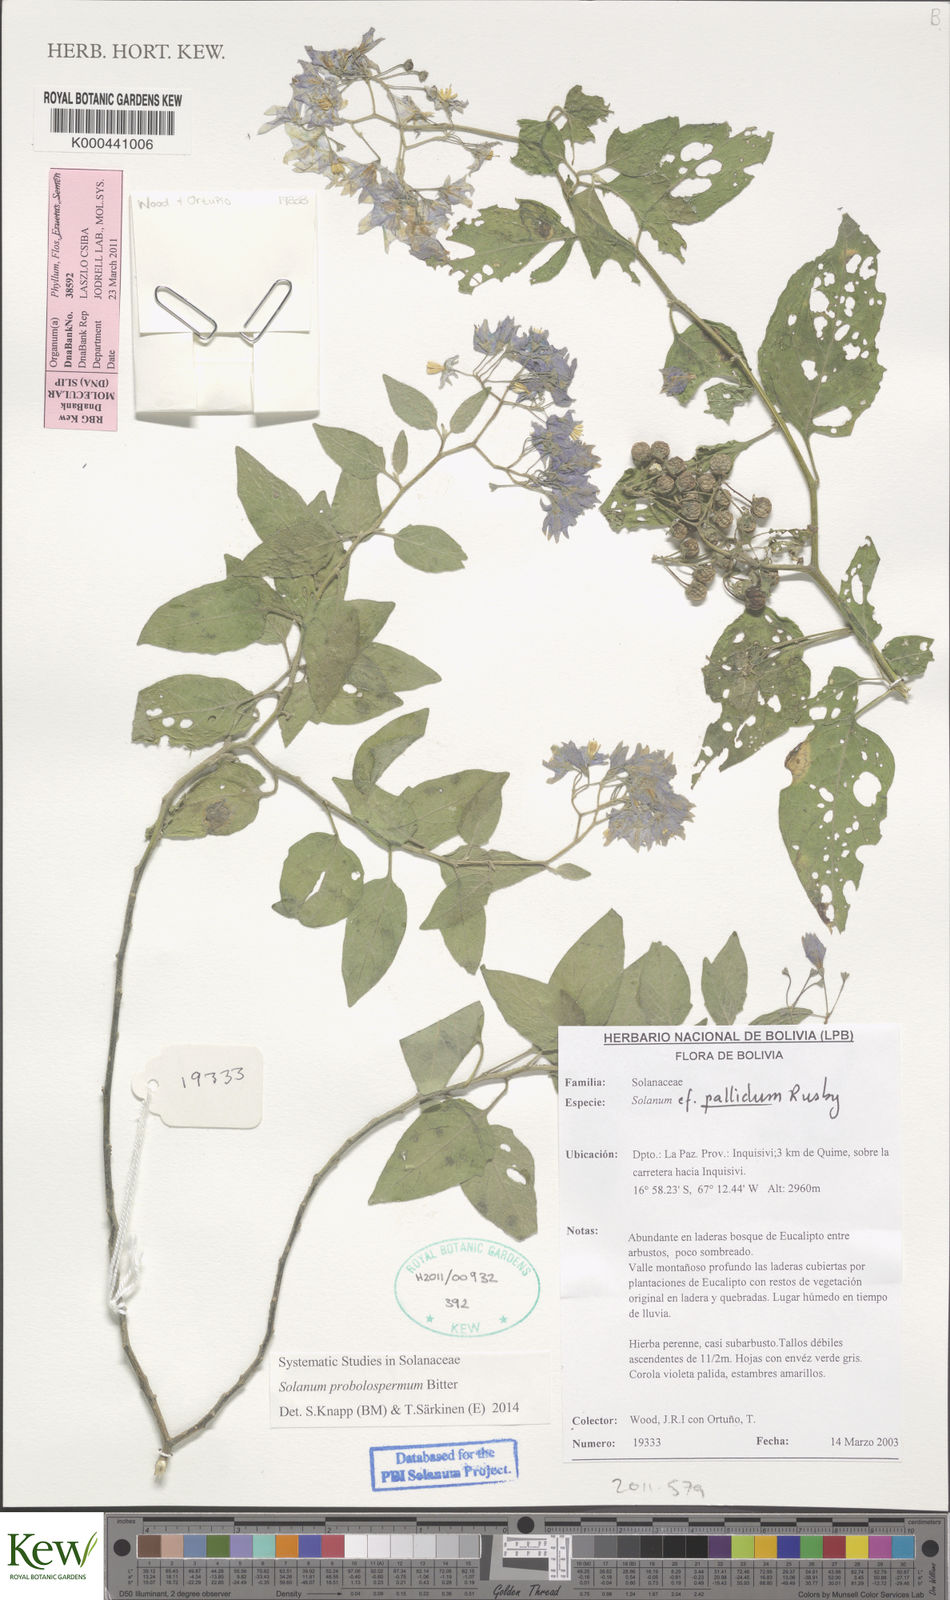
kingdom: Plantae
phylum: Tracheophyta
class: Magnoliopsida
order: Solanales
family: Solanaceae
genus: Solanum
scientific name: Solanum probolospermum
